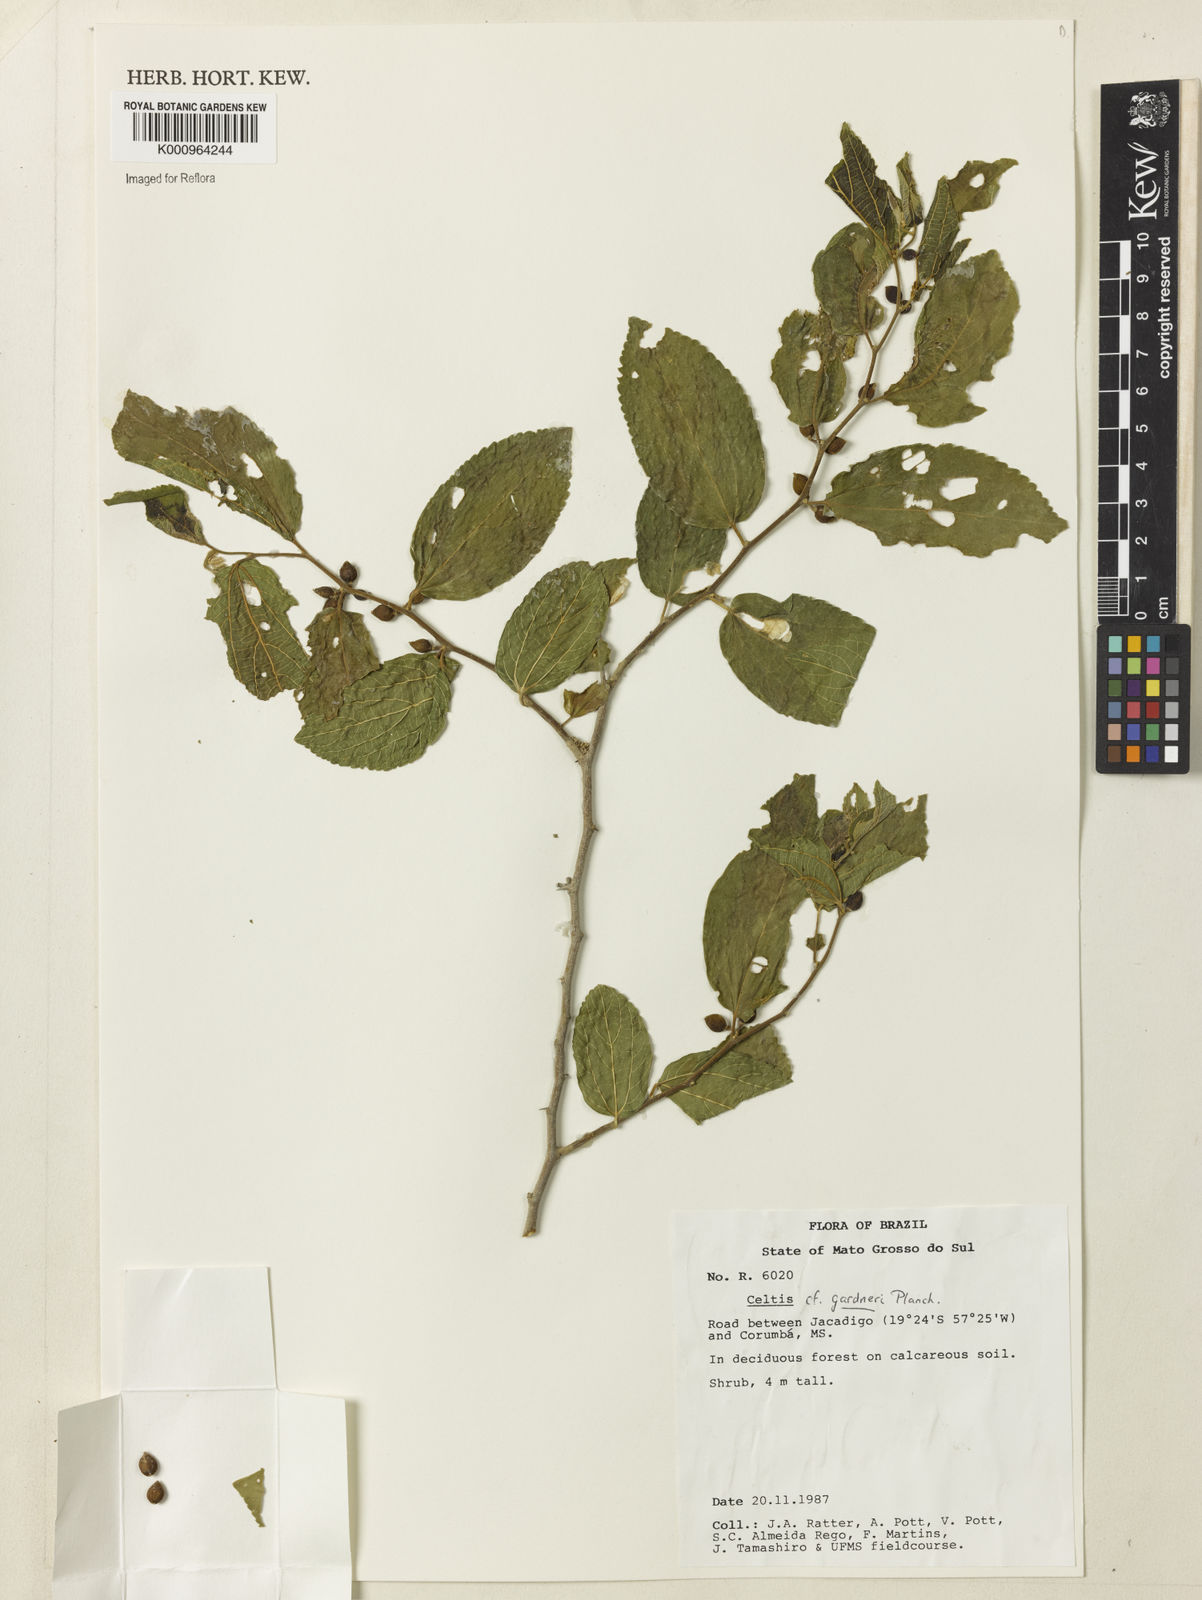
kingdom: Plantae
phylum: Tracheophyta
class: Magnoliopsida
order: Rosales
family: Cannabaceae
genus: Celtis
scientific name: Celtis iguanaea
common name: Iguana hackberry
